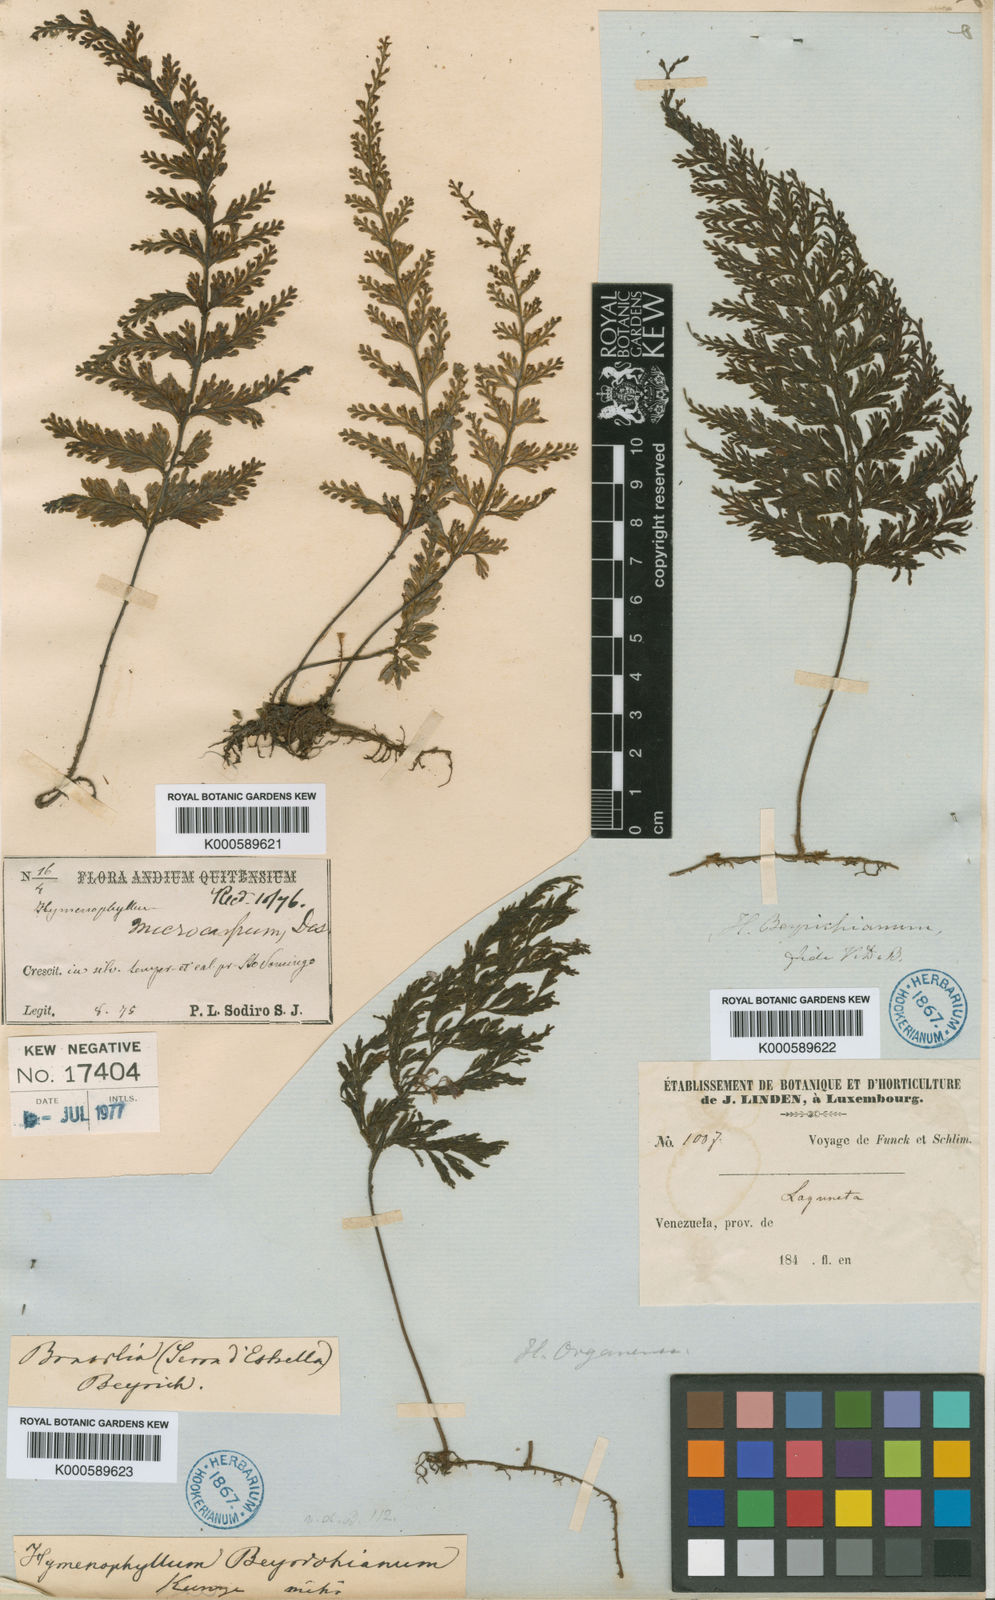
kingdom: Plantae
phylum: Tracheophyta
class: Polypodiopsida
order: Hymenophyllales
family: Hymenophyllaceae
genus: Hymenophyllum
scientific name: Hymenophyllum microcarpum
